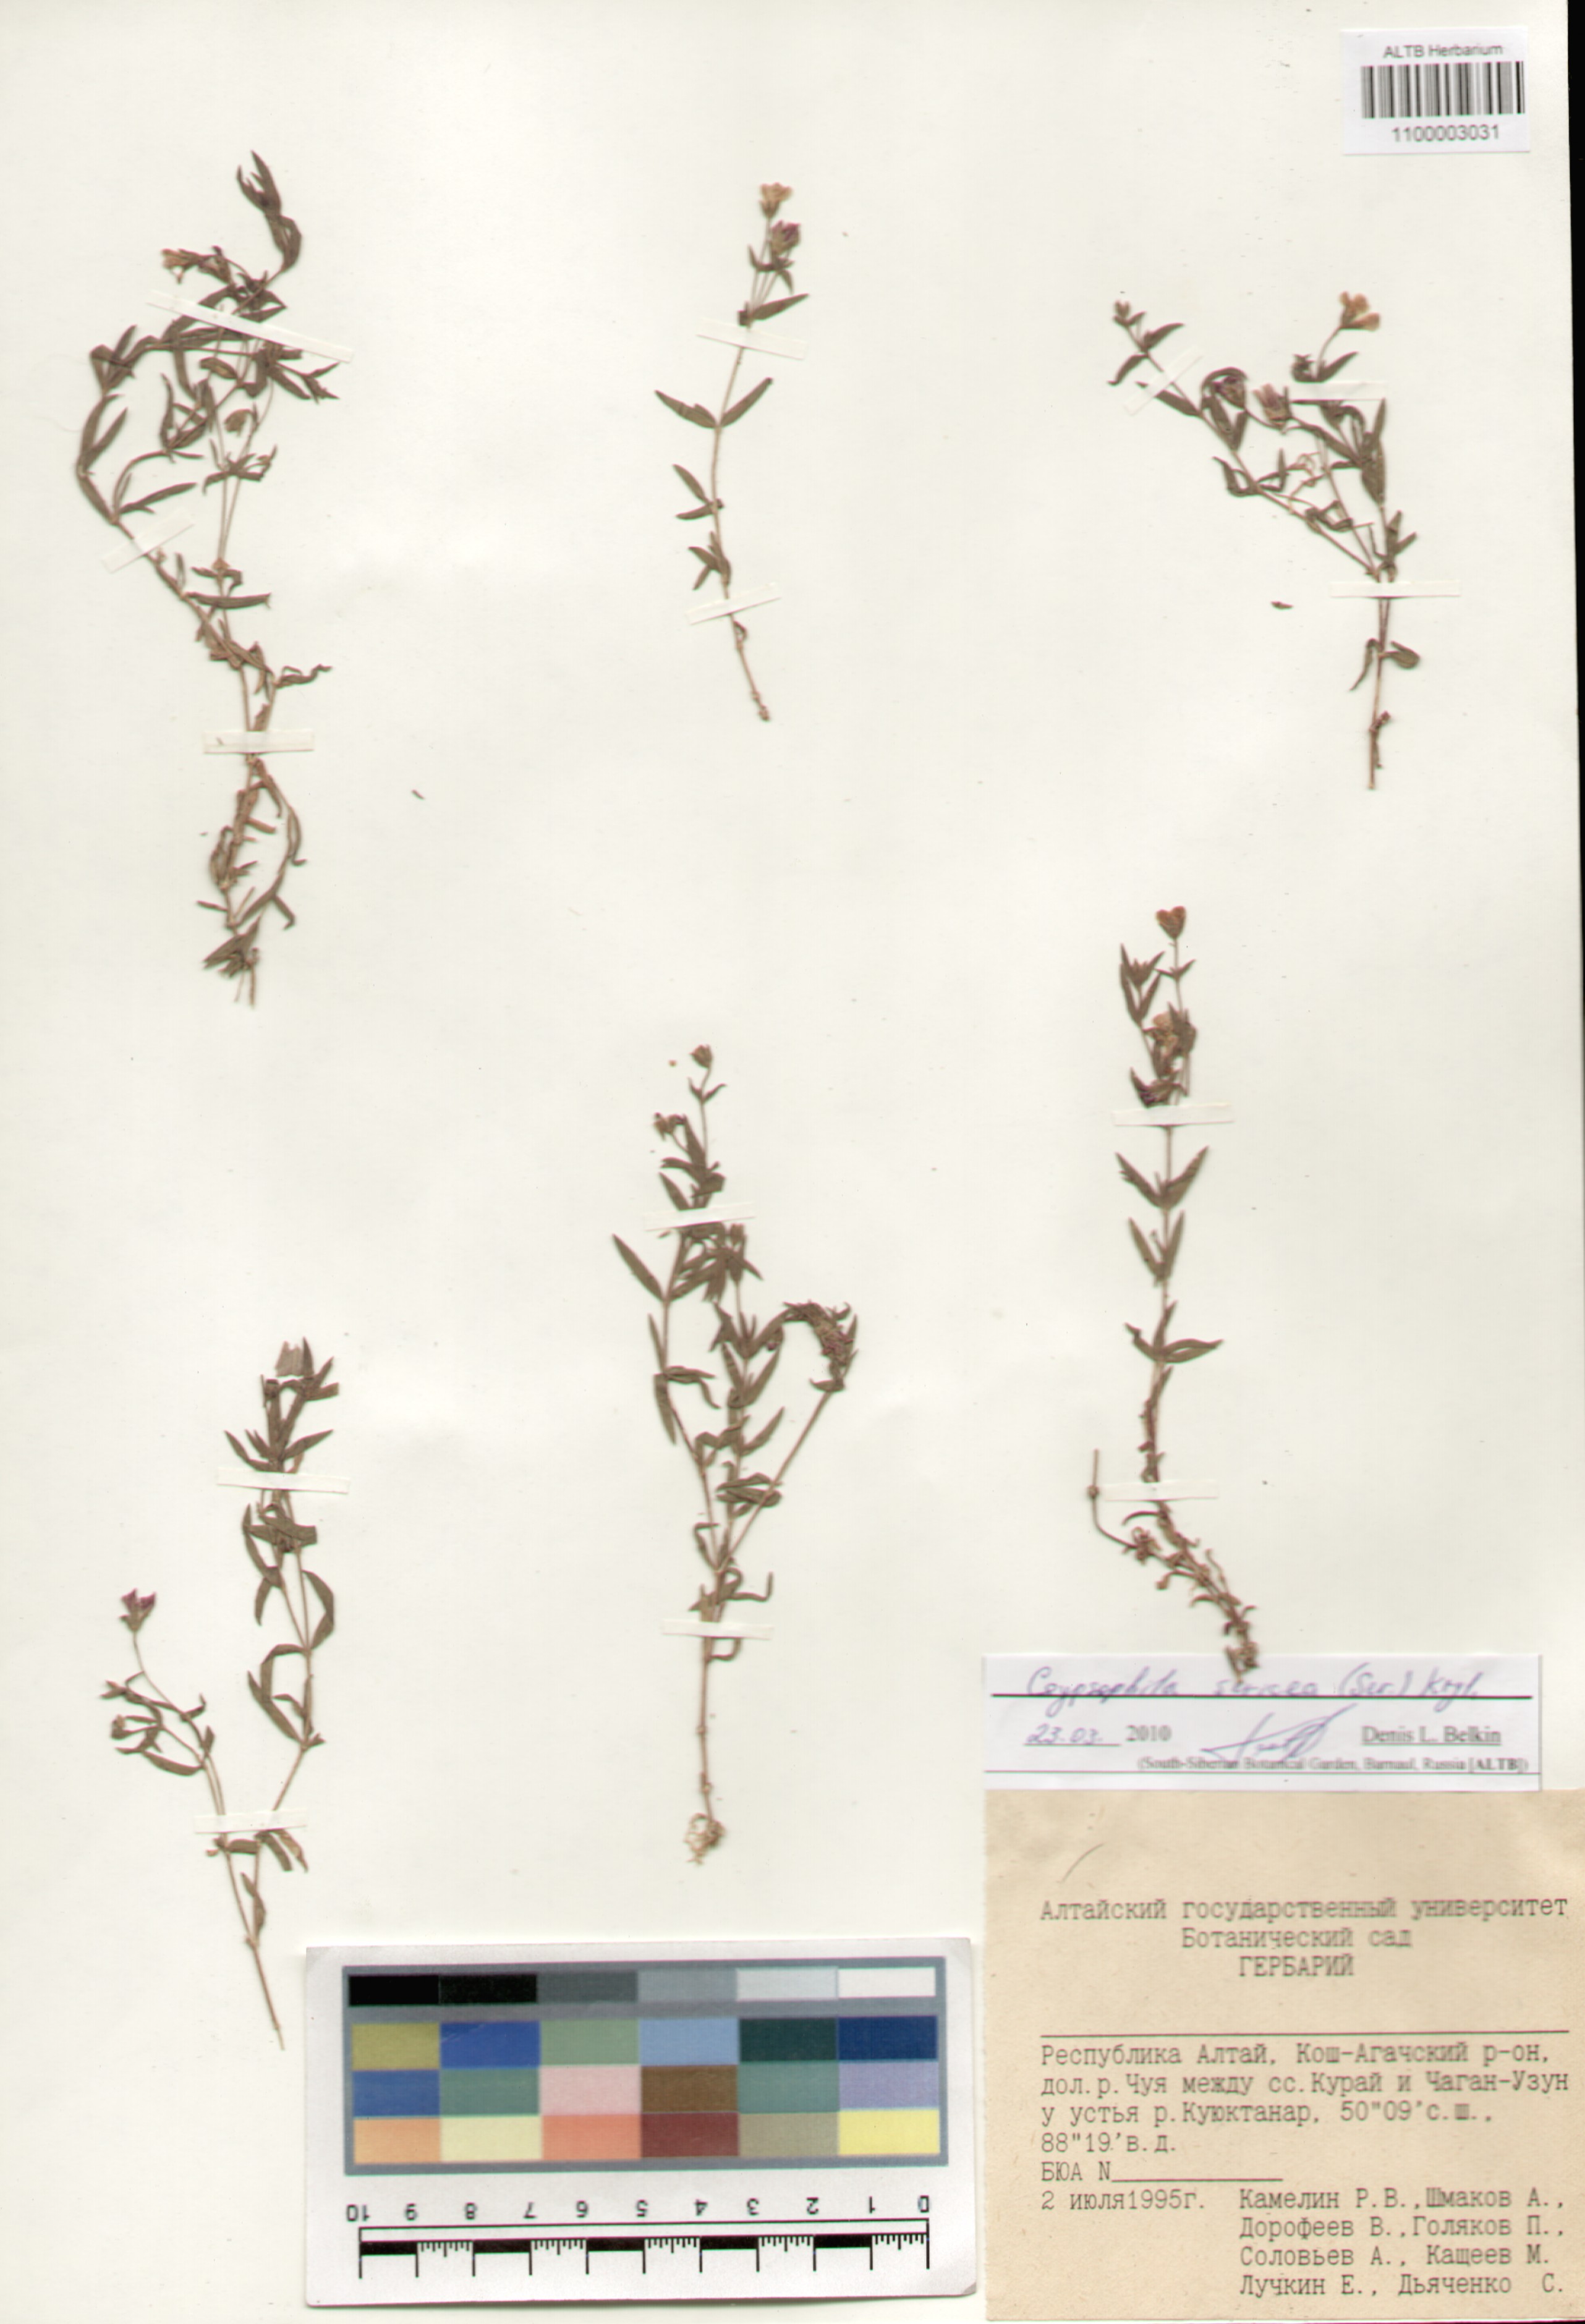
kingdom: Plantae
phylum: Tracheophyta
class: Magnoliopsida
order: Caryophyllales
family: Caryophyllaceae
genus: Heterochroa
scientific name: Heterochroa petraea
